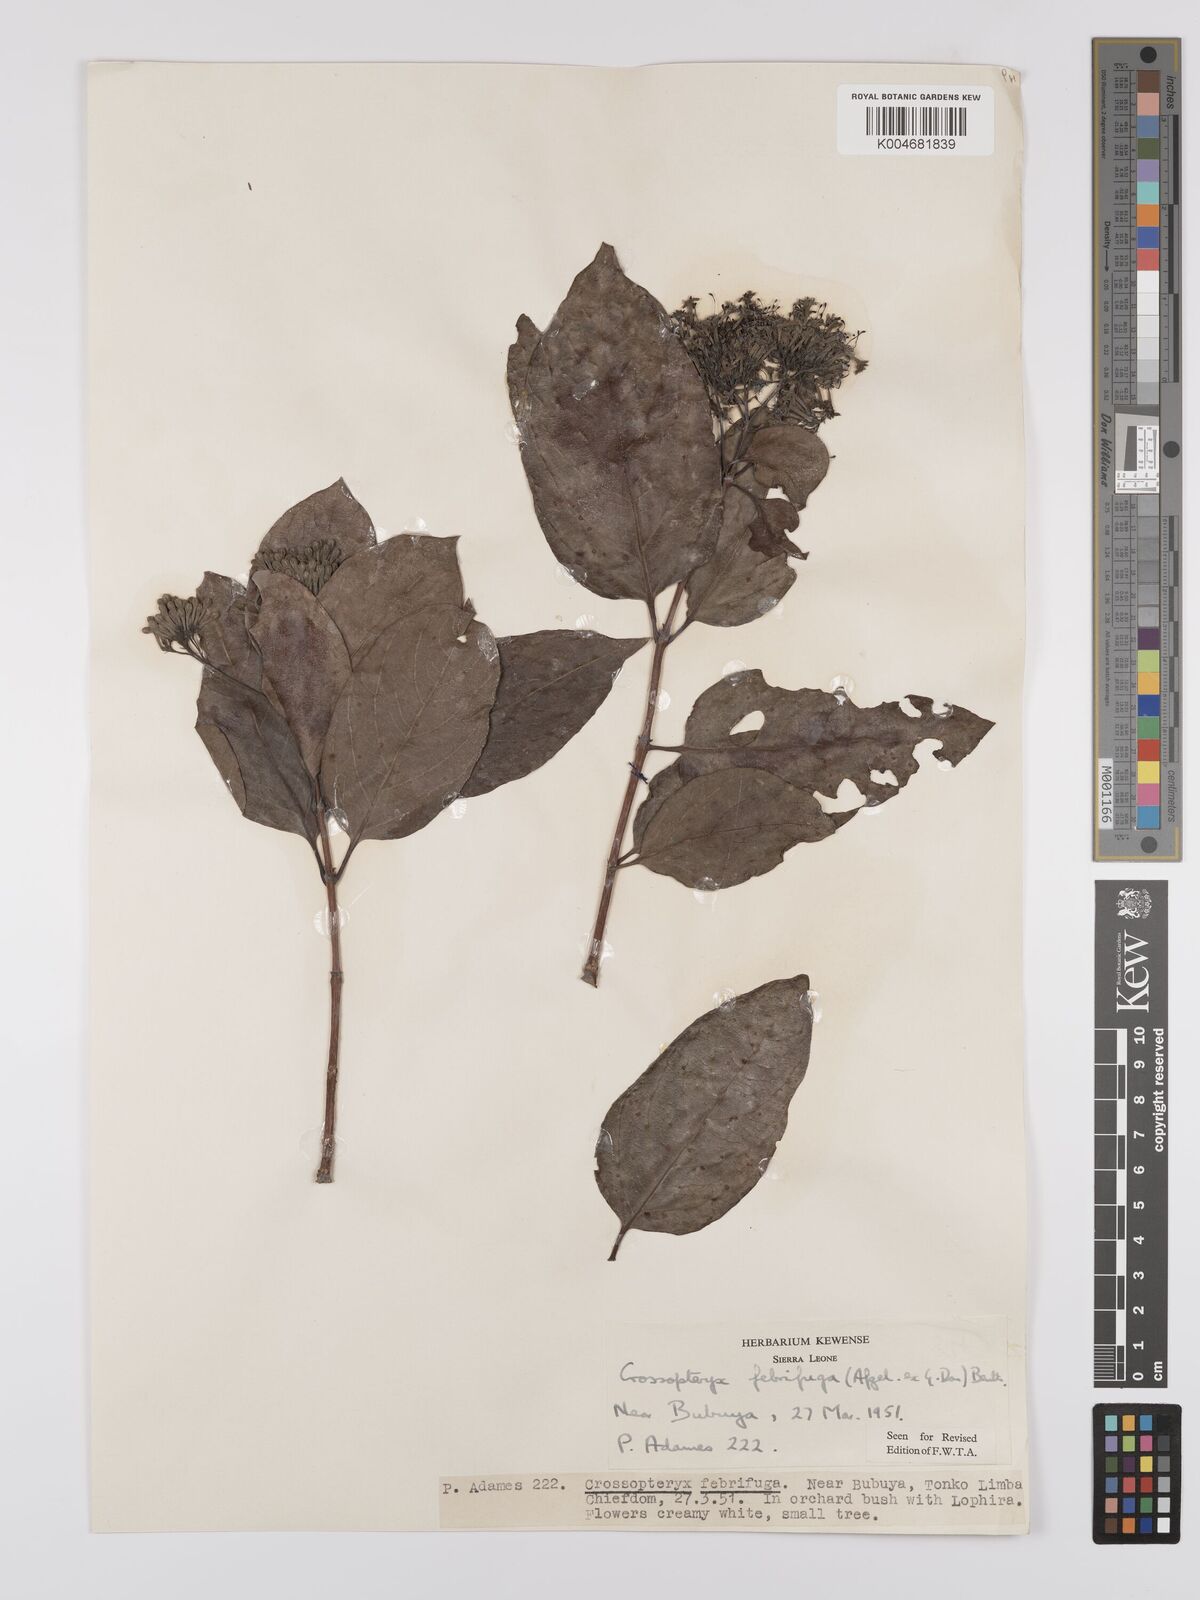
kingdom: Plantae
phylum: Tracheophyta
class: Magnoliopsida
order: Gentianales
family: Rubiaceae
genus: Crossopteryx
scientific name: Crossopteryx febrifuga
